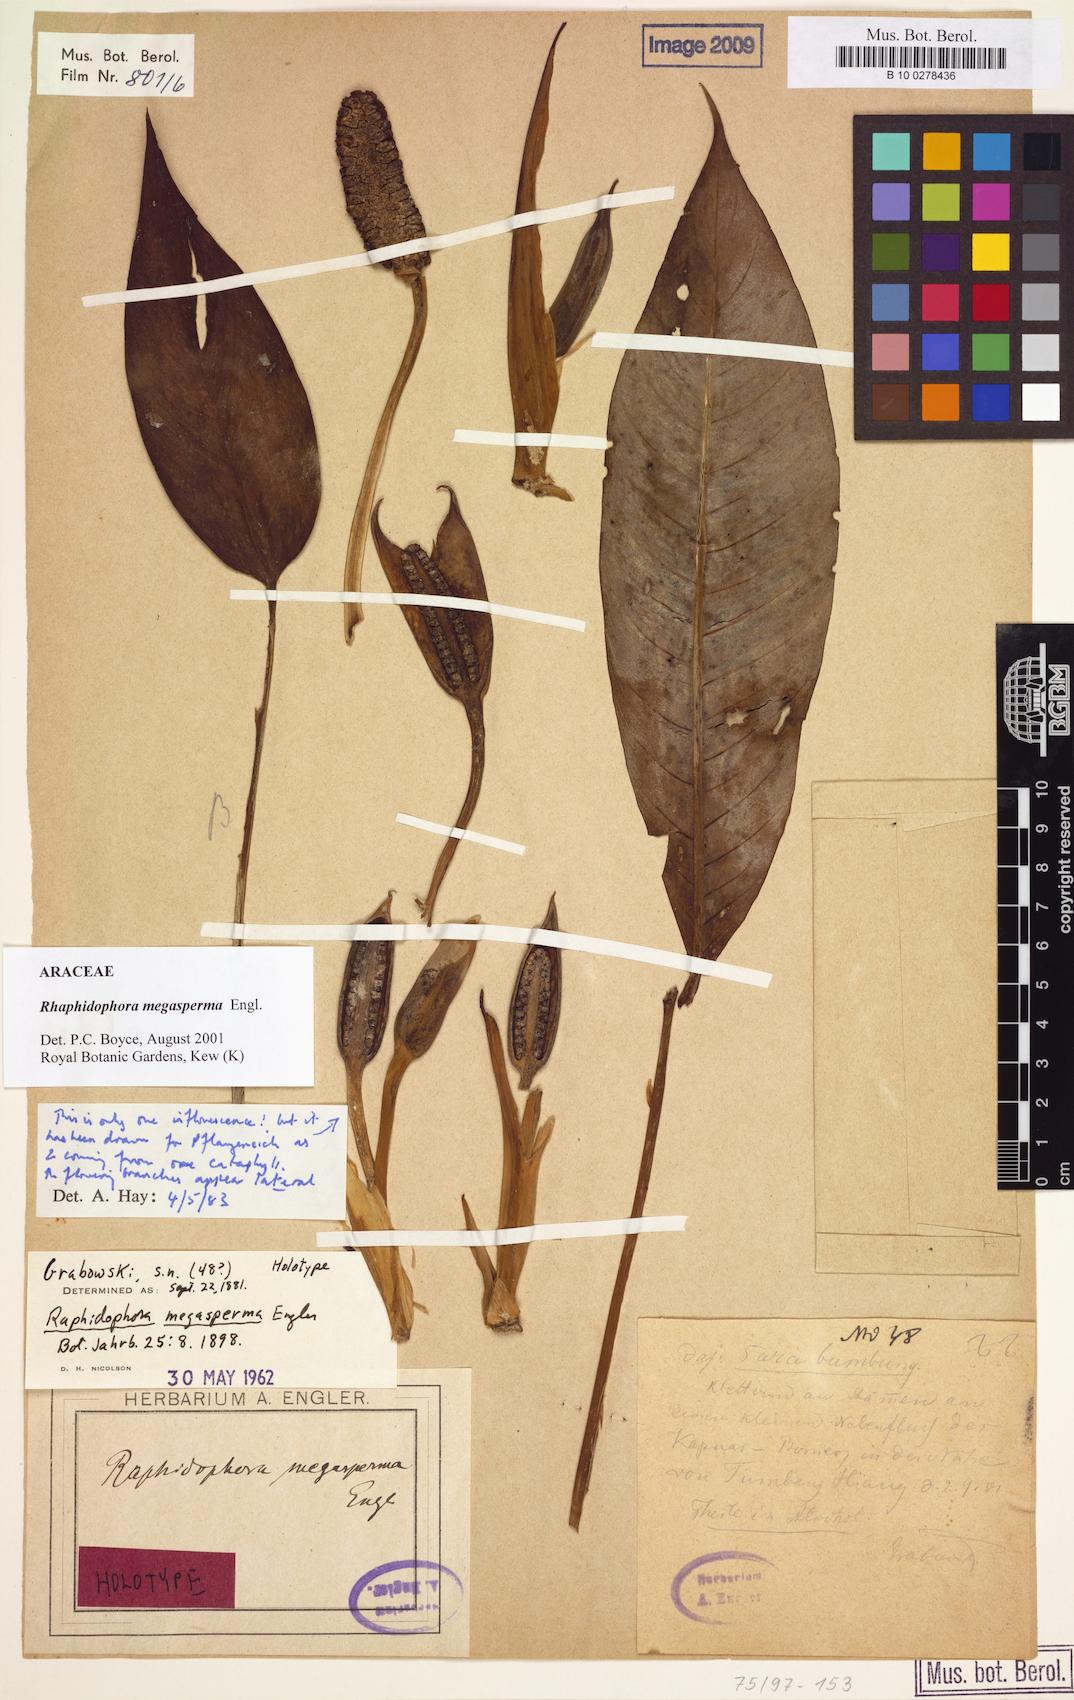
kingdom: Plantae
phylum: Tracheophyta
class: Liliopsida
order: Alismatales
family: Araceae
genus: Rhaphidophora
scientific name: Rhaphidophora megasperma
